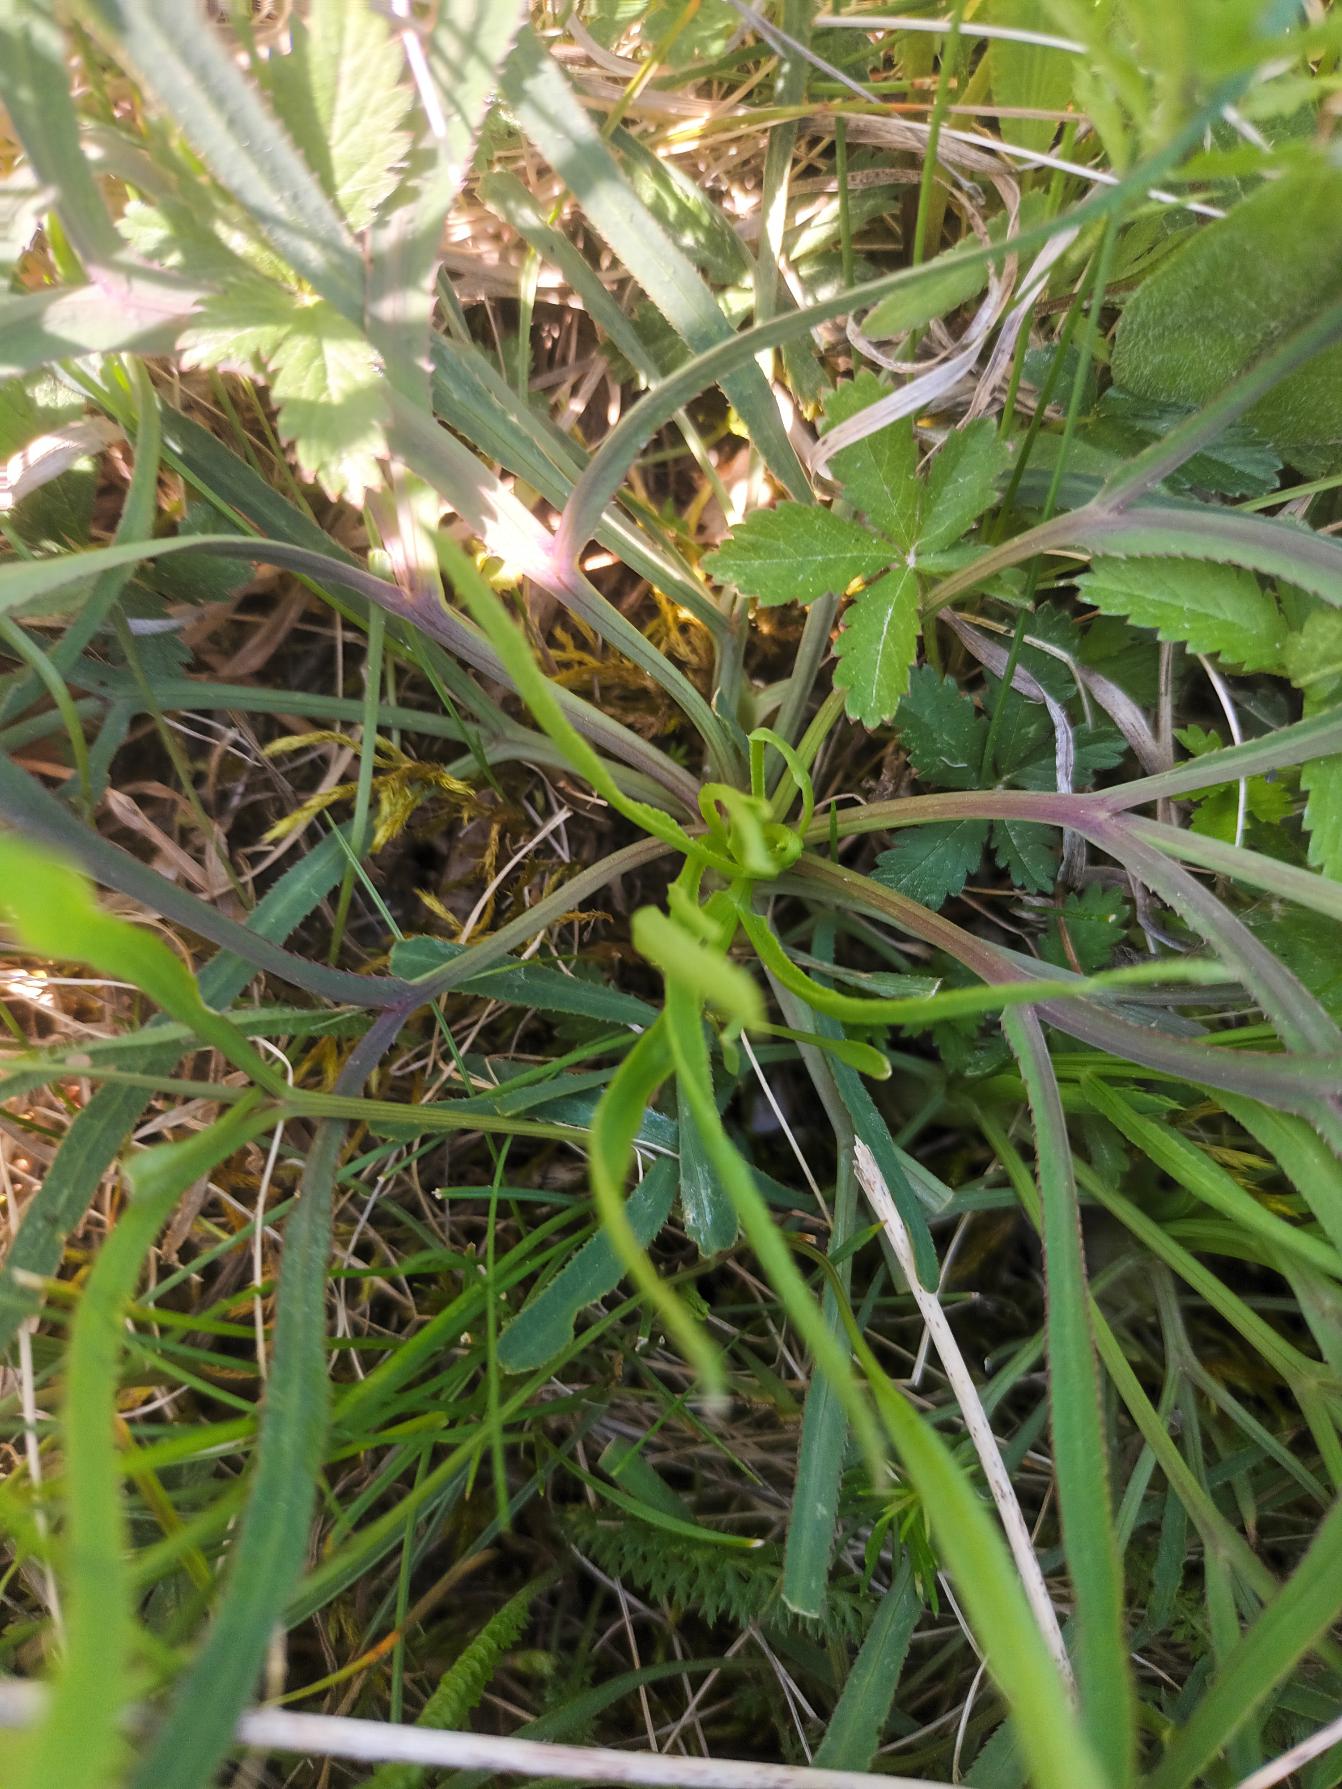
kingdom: Plantae
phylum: Tracheophyta
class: Magnoliopsida
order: Apiales
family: Apiaceae
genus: Falcaria
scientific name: Falcaria vulgaris
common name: Seglblad
